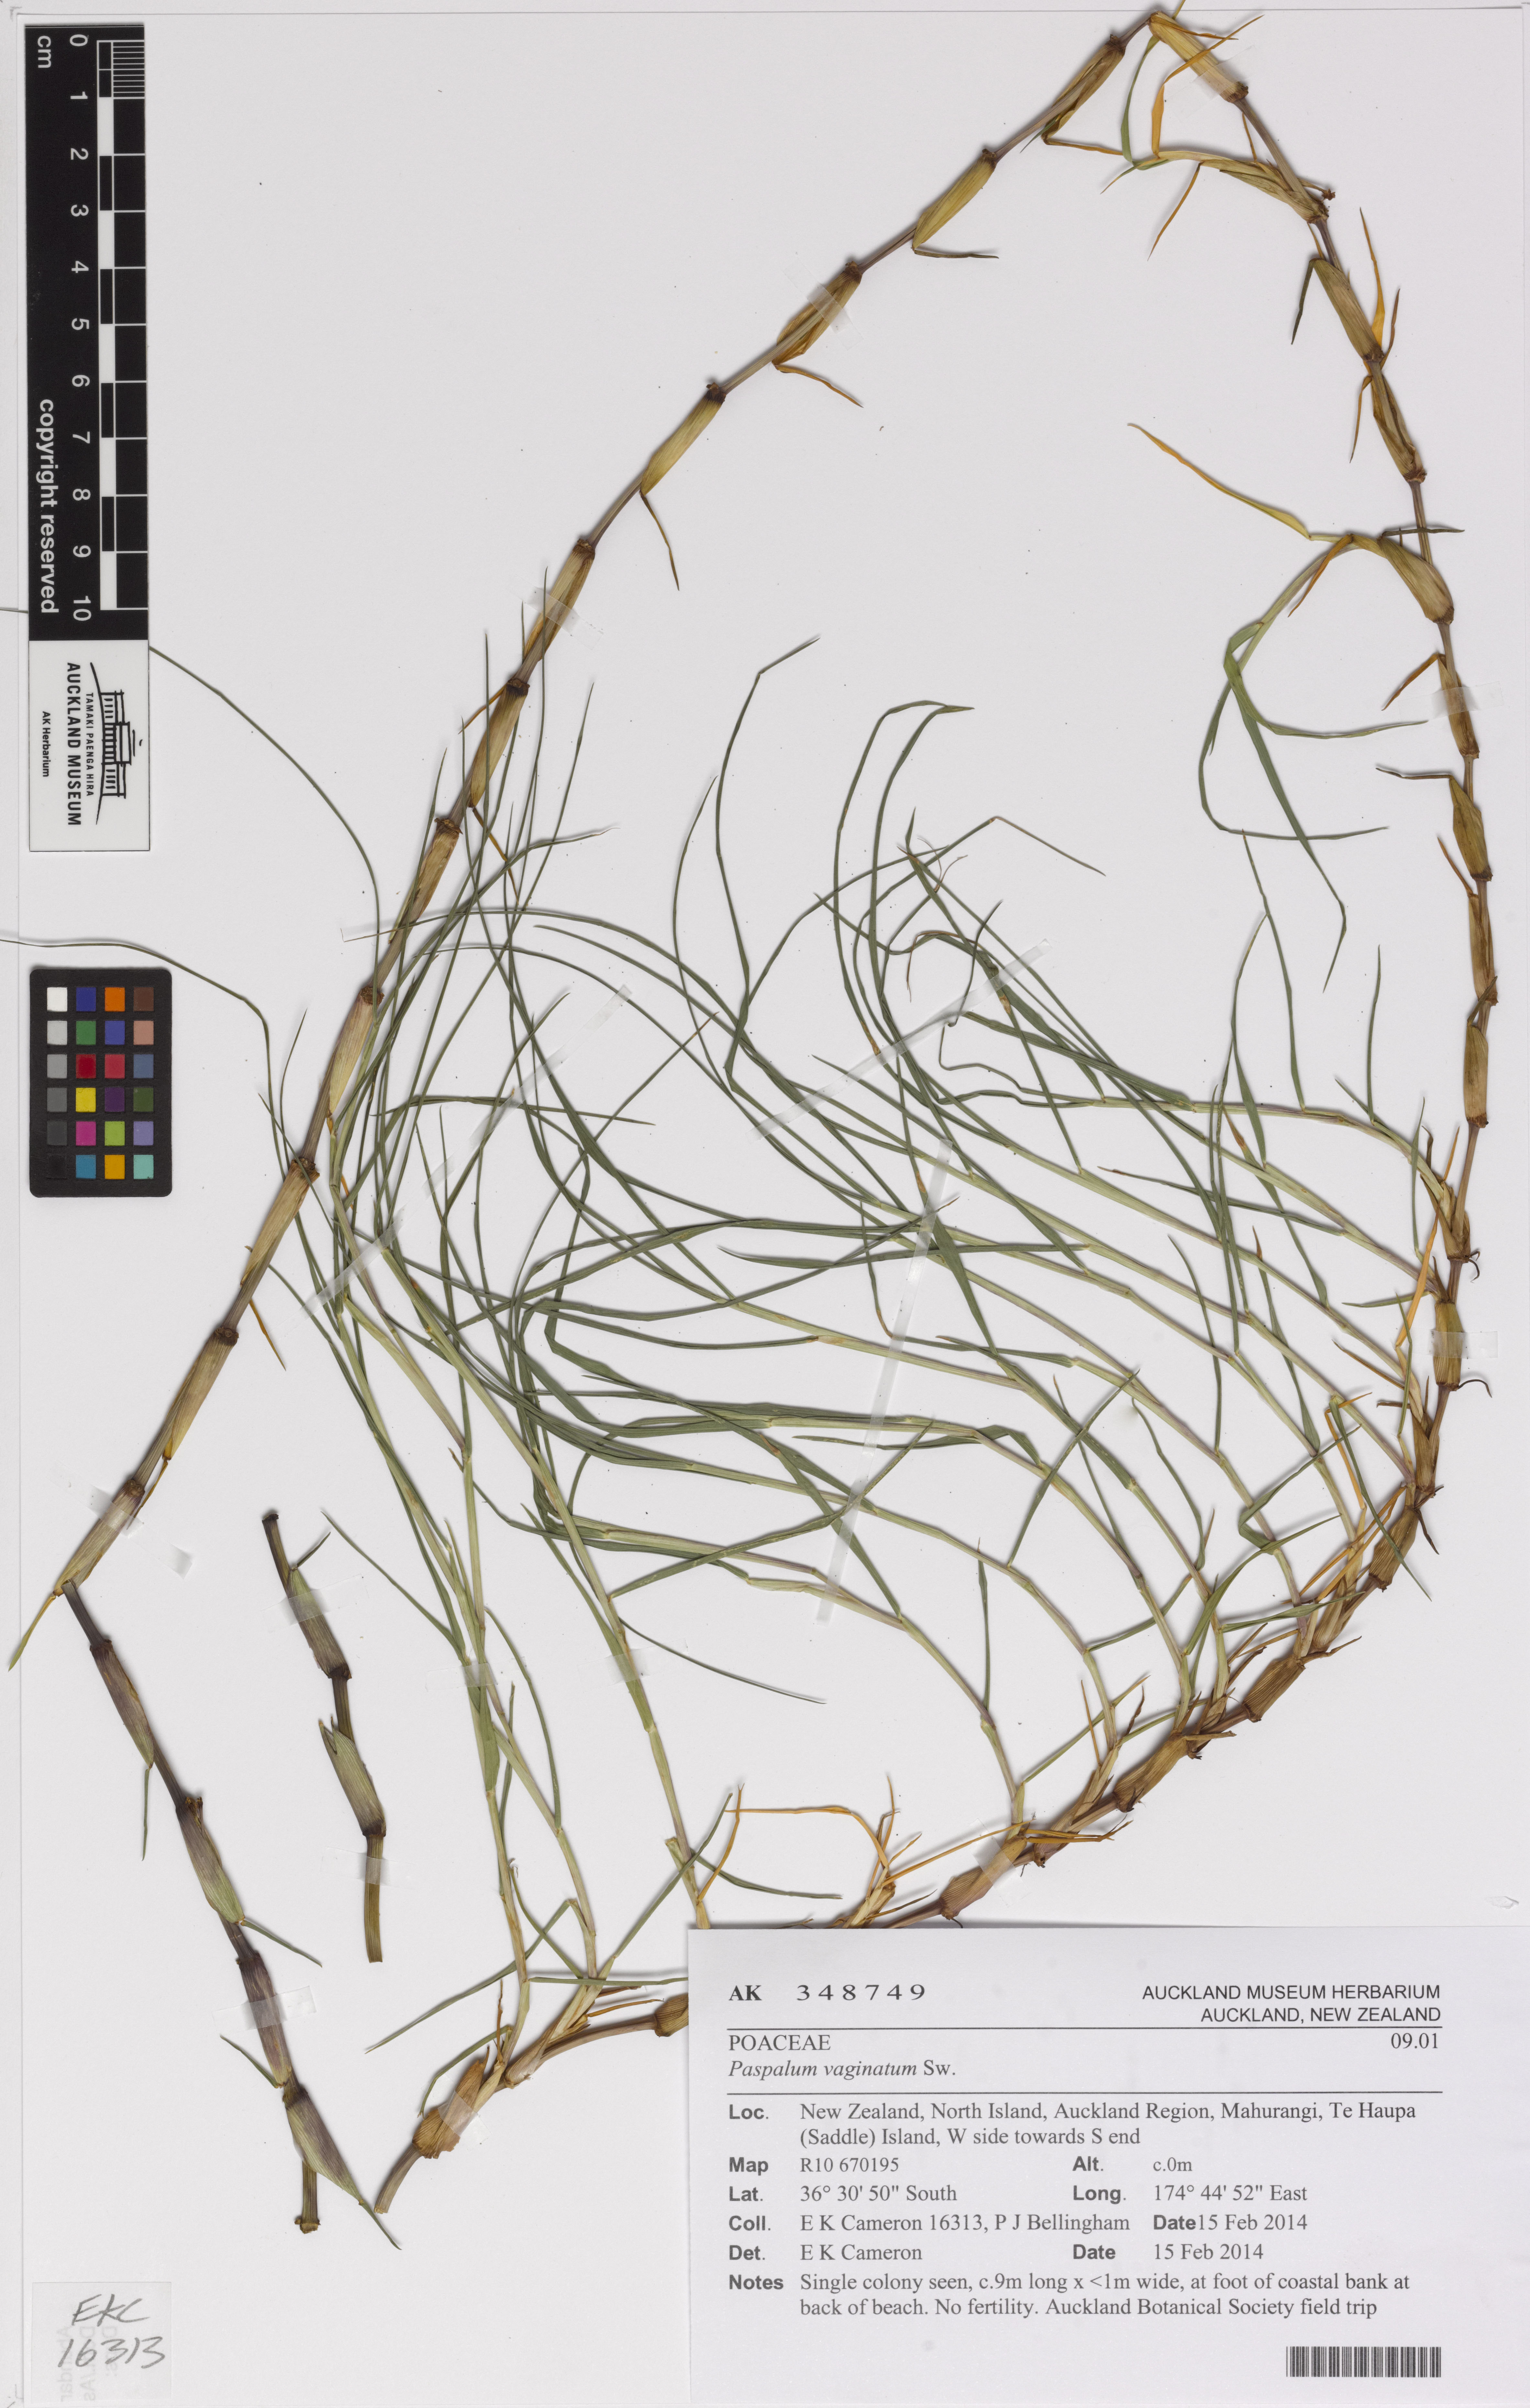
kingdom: Plantae
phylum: Tracheophyta
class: Liliopsida
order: Poales
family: Poaceae
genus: Paspalum
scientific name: Paspalum vaginatum
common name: Seashore paspalum
